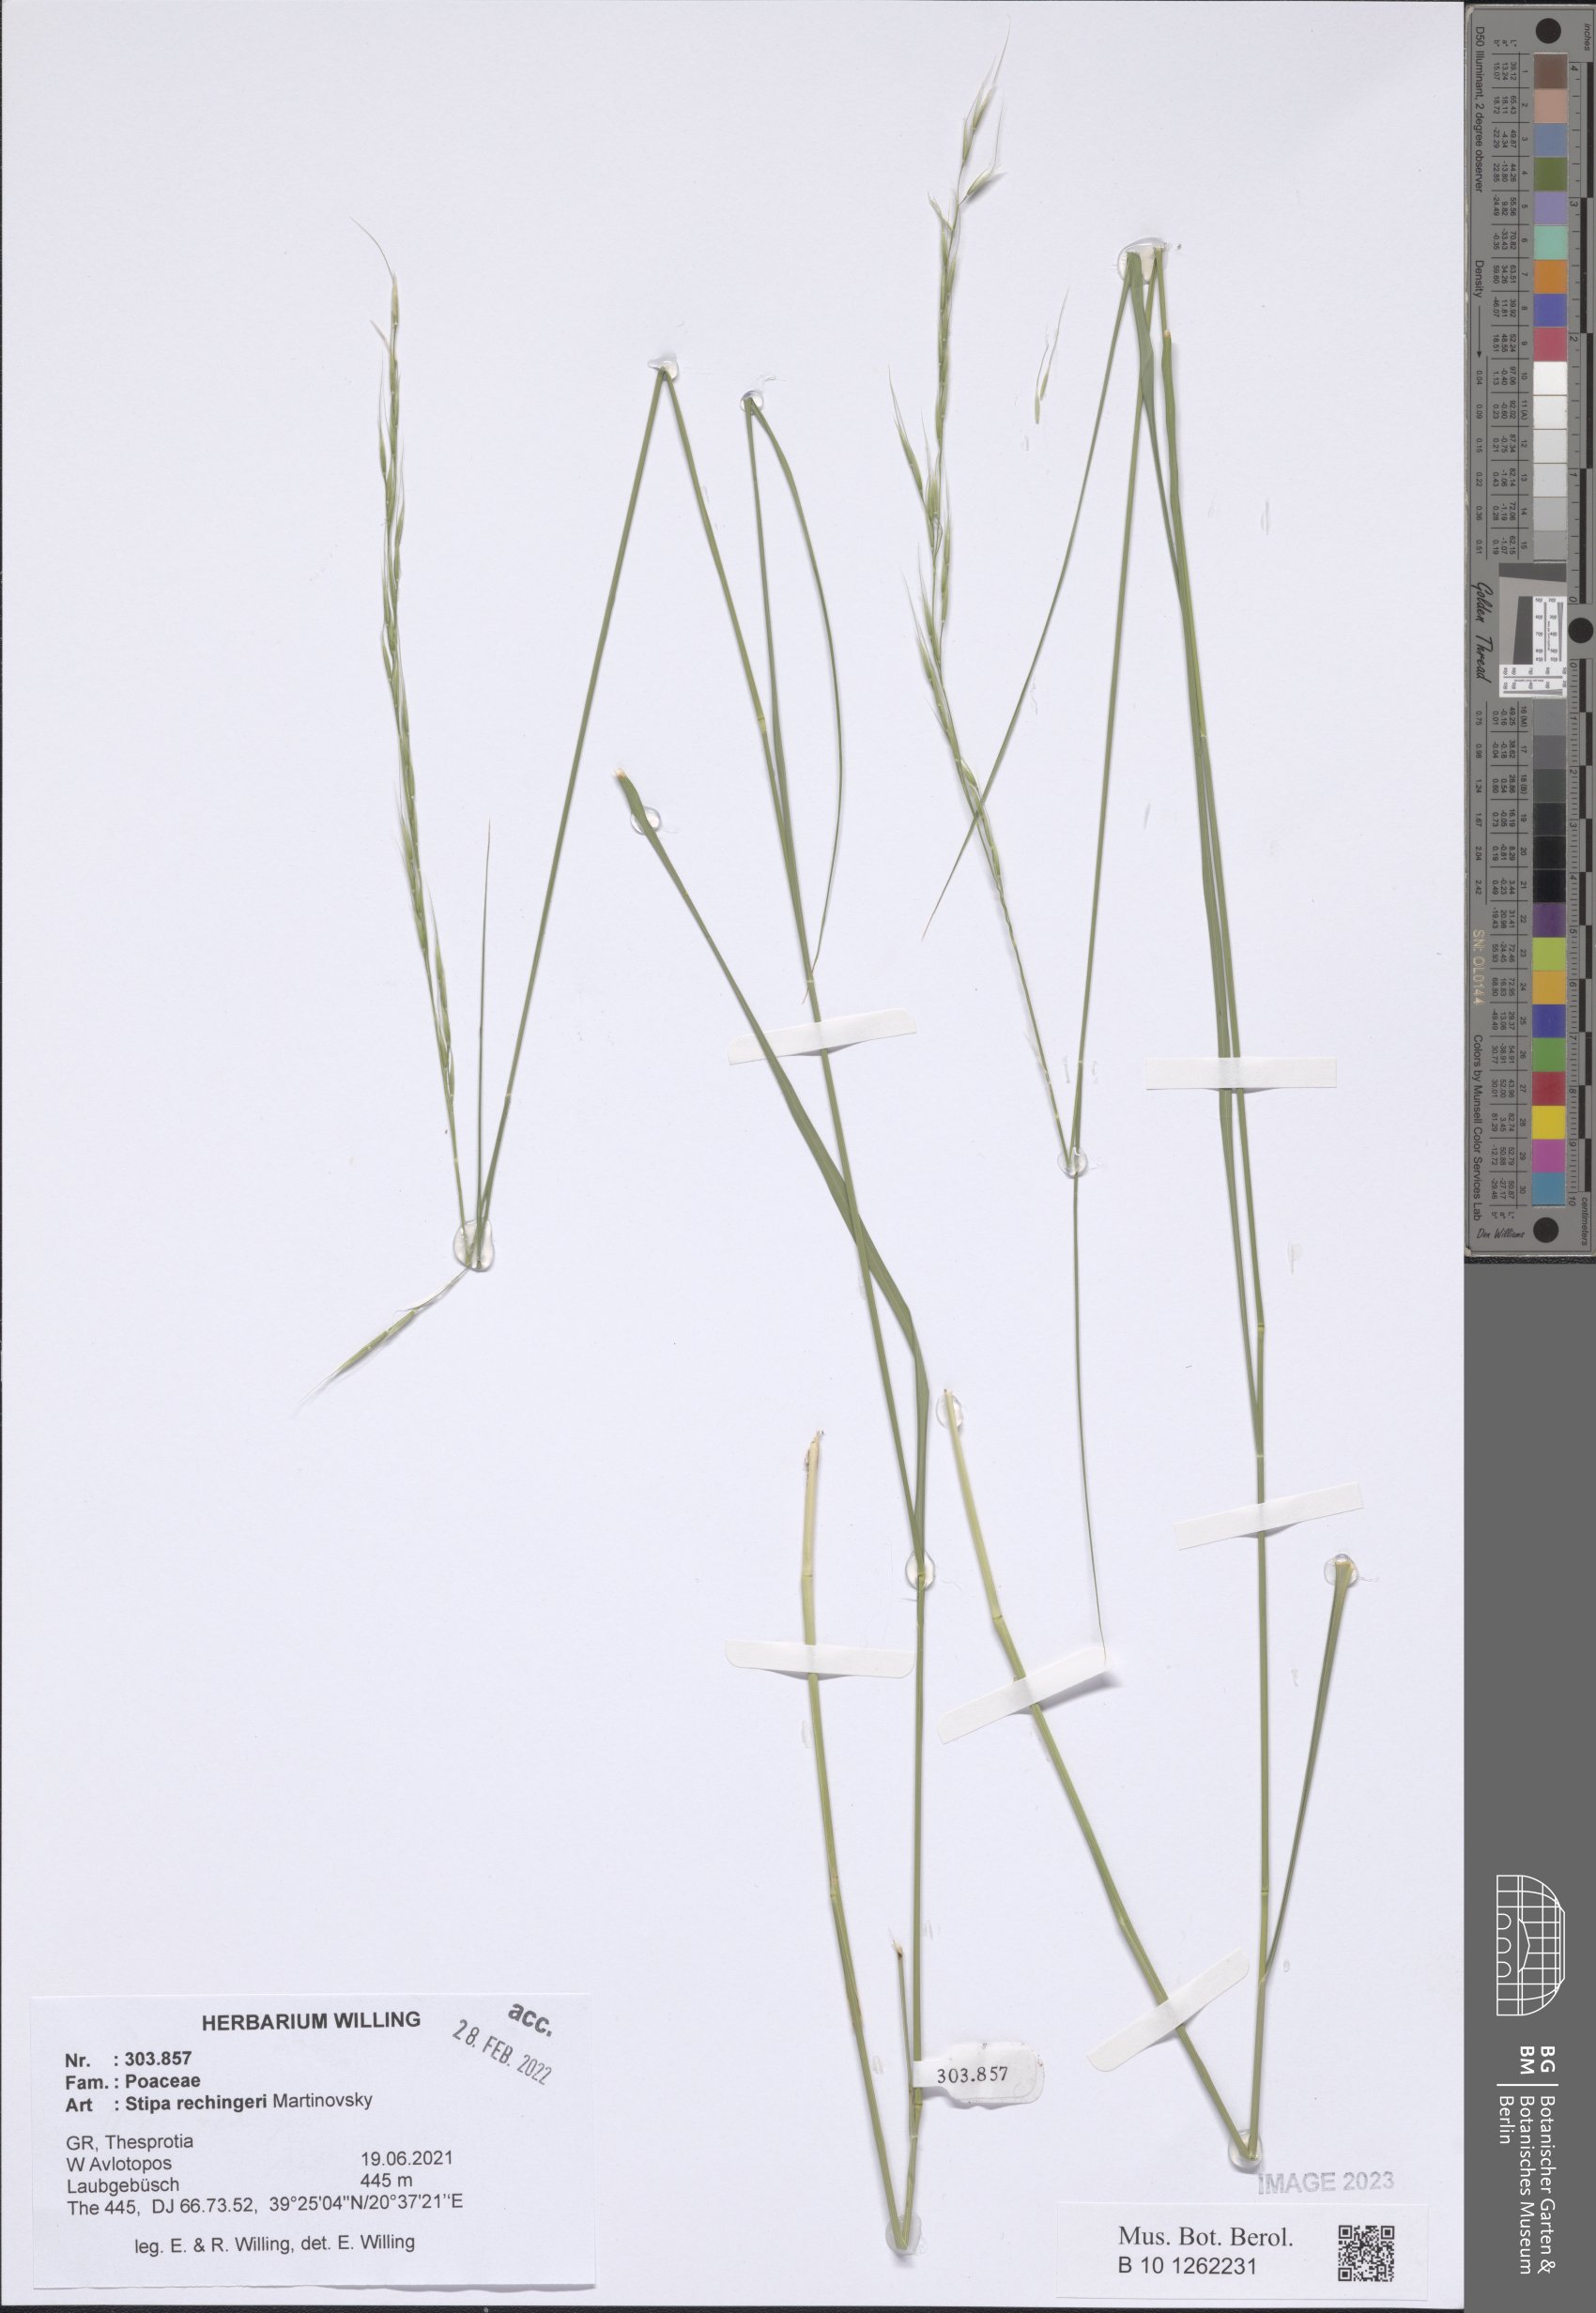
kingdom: Plantae
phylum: Tracheophyta
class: Liliopsida
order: Poales
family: Poaceae
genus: Stipa
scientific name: Stipa rechingeri
